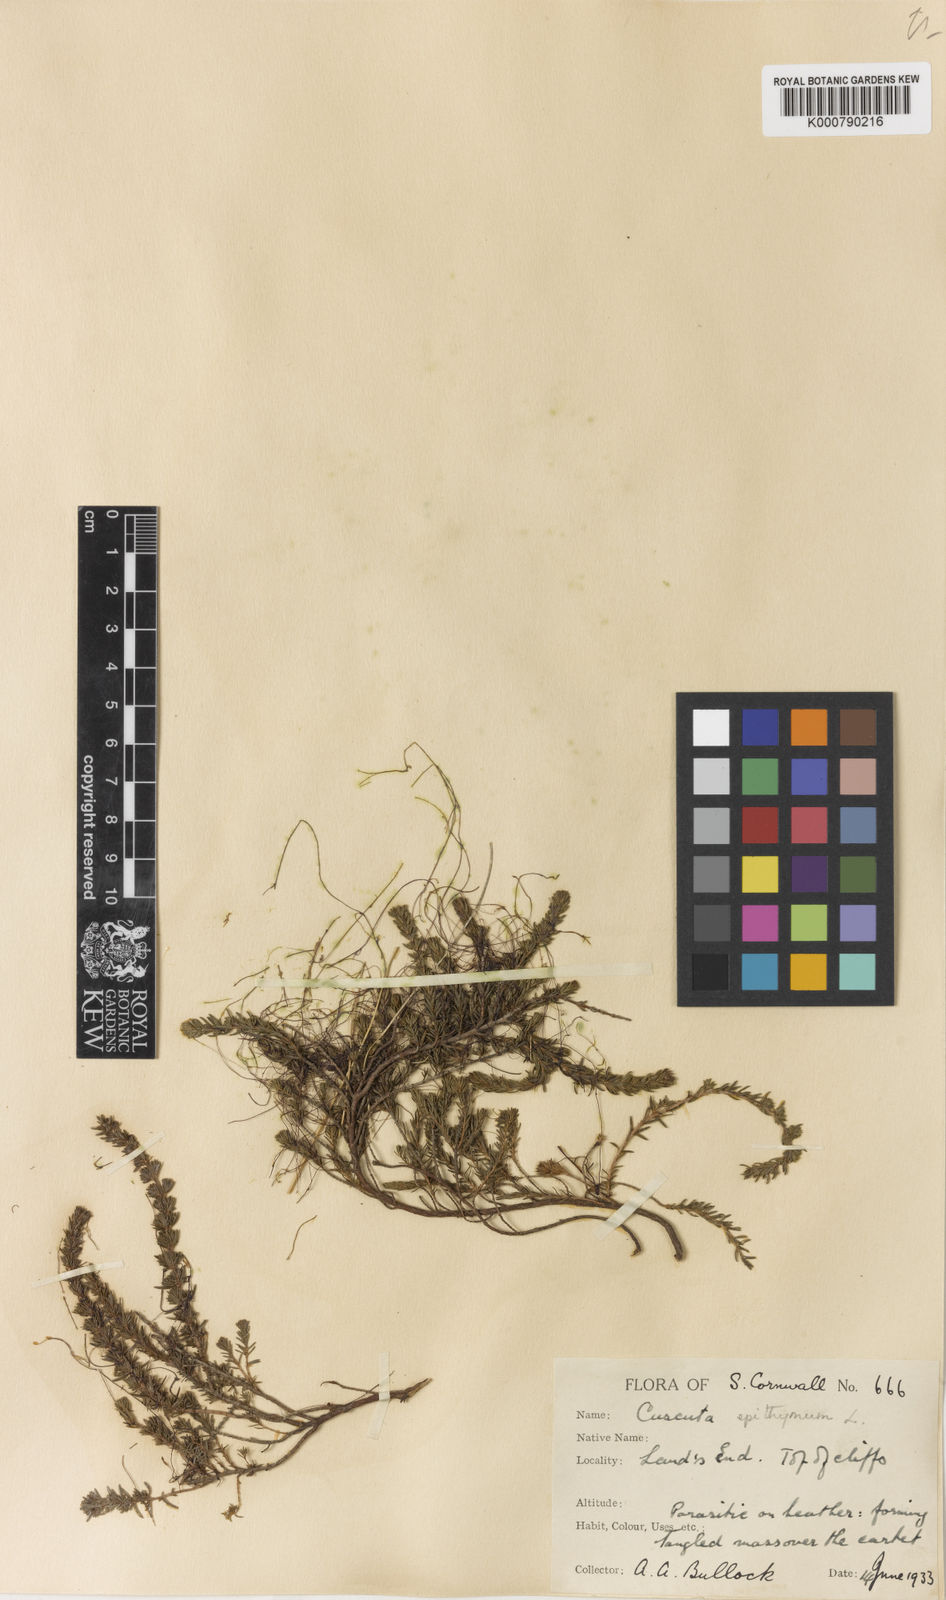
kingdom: Plantae
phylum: Tracheophyta
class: Magnoliopsida
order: Solanales
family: Convolvulaceae
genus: Cuscuta
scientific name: Cuscuta epithymum
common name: Clover dodder
